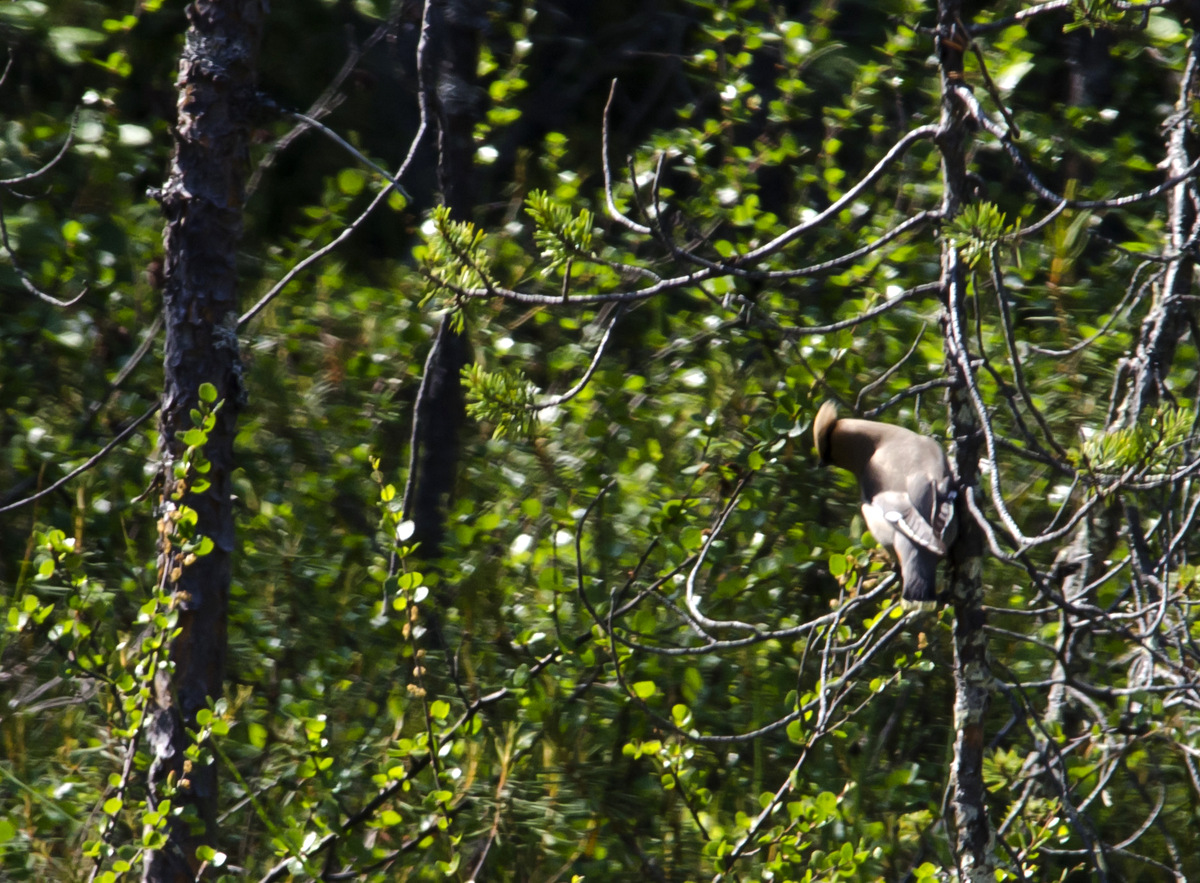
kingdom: Animalia
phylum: Chordata
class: Aves
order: Passeriformes
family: Bombycillidae
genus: Bombycilla
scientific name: Bombycilla garrulus
